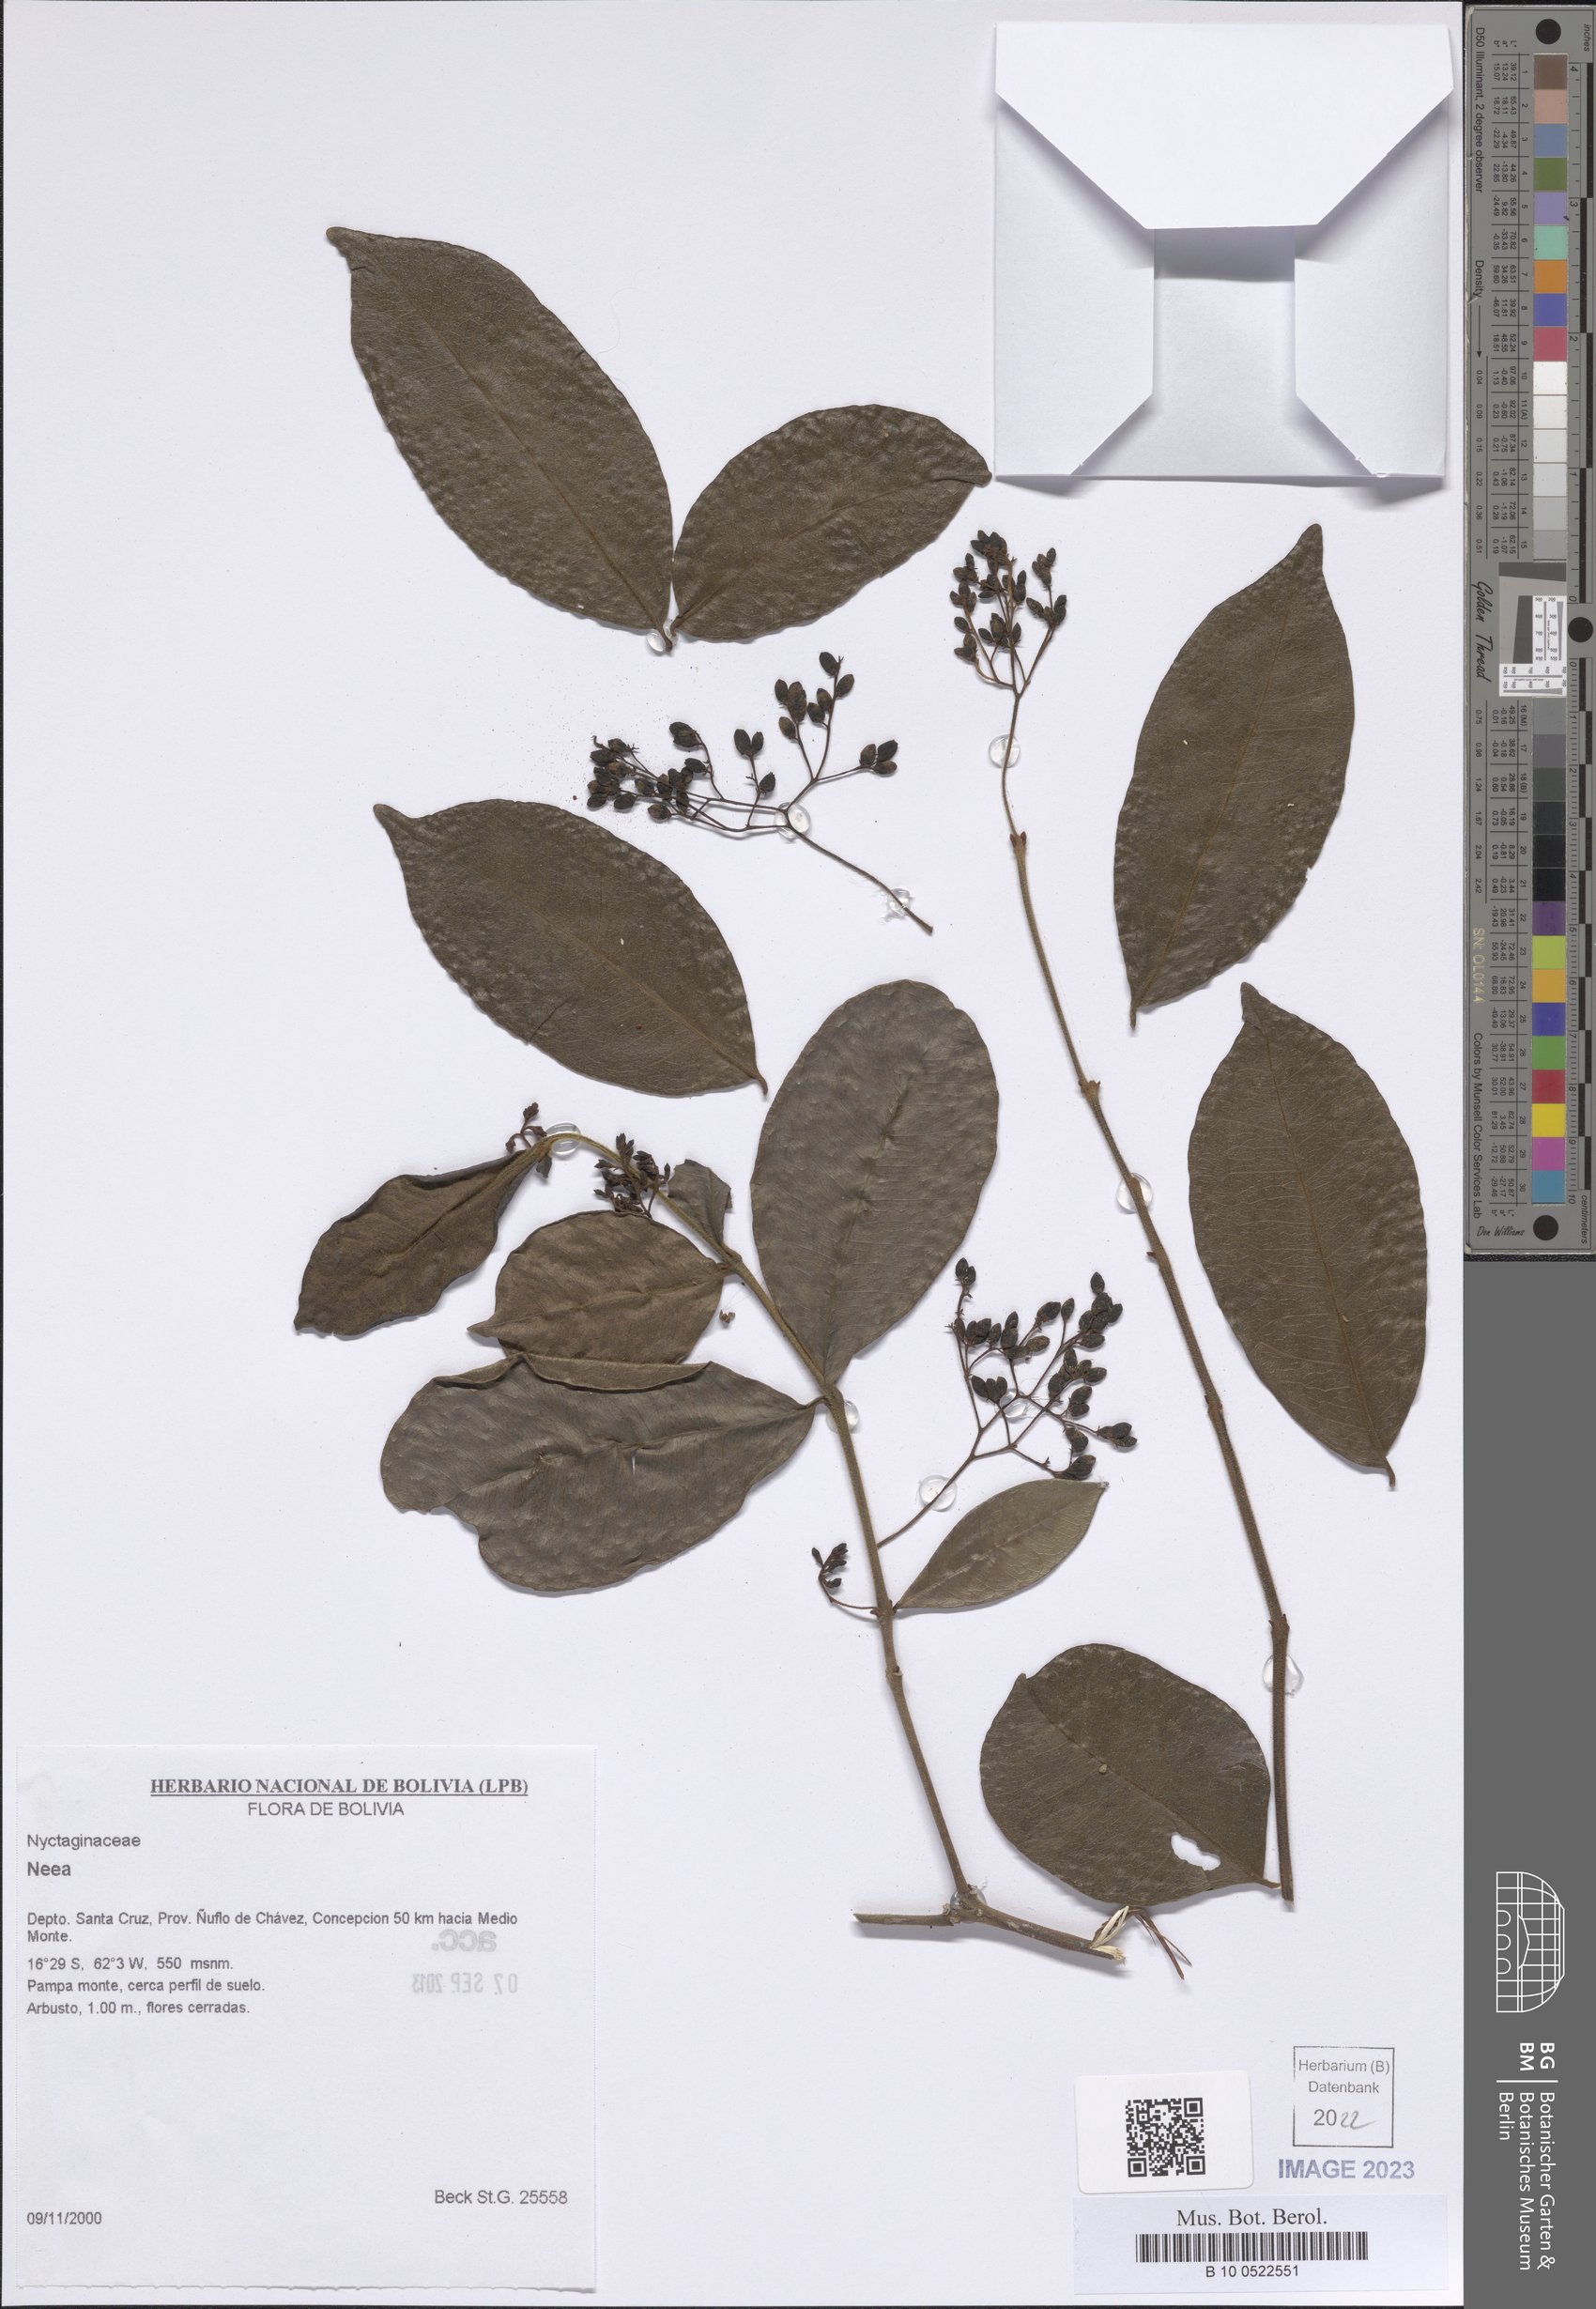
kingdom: Plantae
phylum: Tracheophyta
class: Magnoliopsida
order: Caryophyllales
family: Nyctaginaceae
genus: Neea
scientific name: Neea
